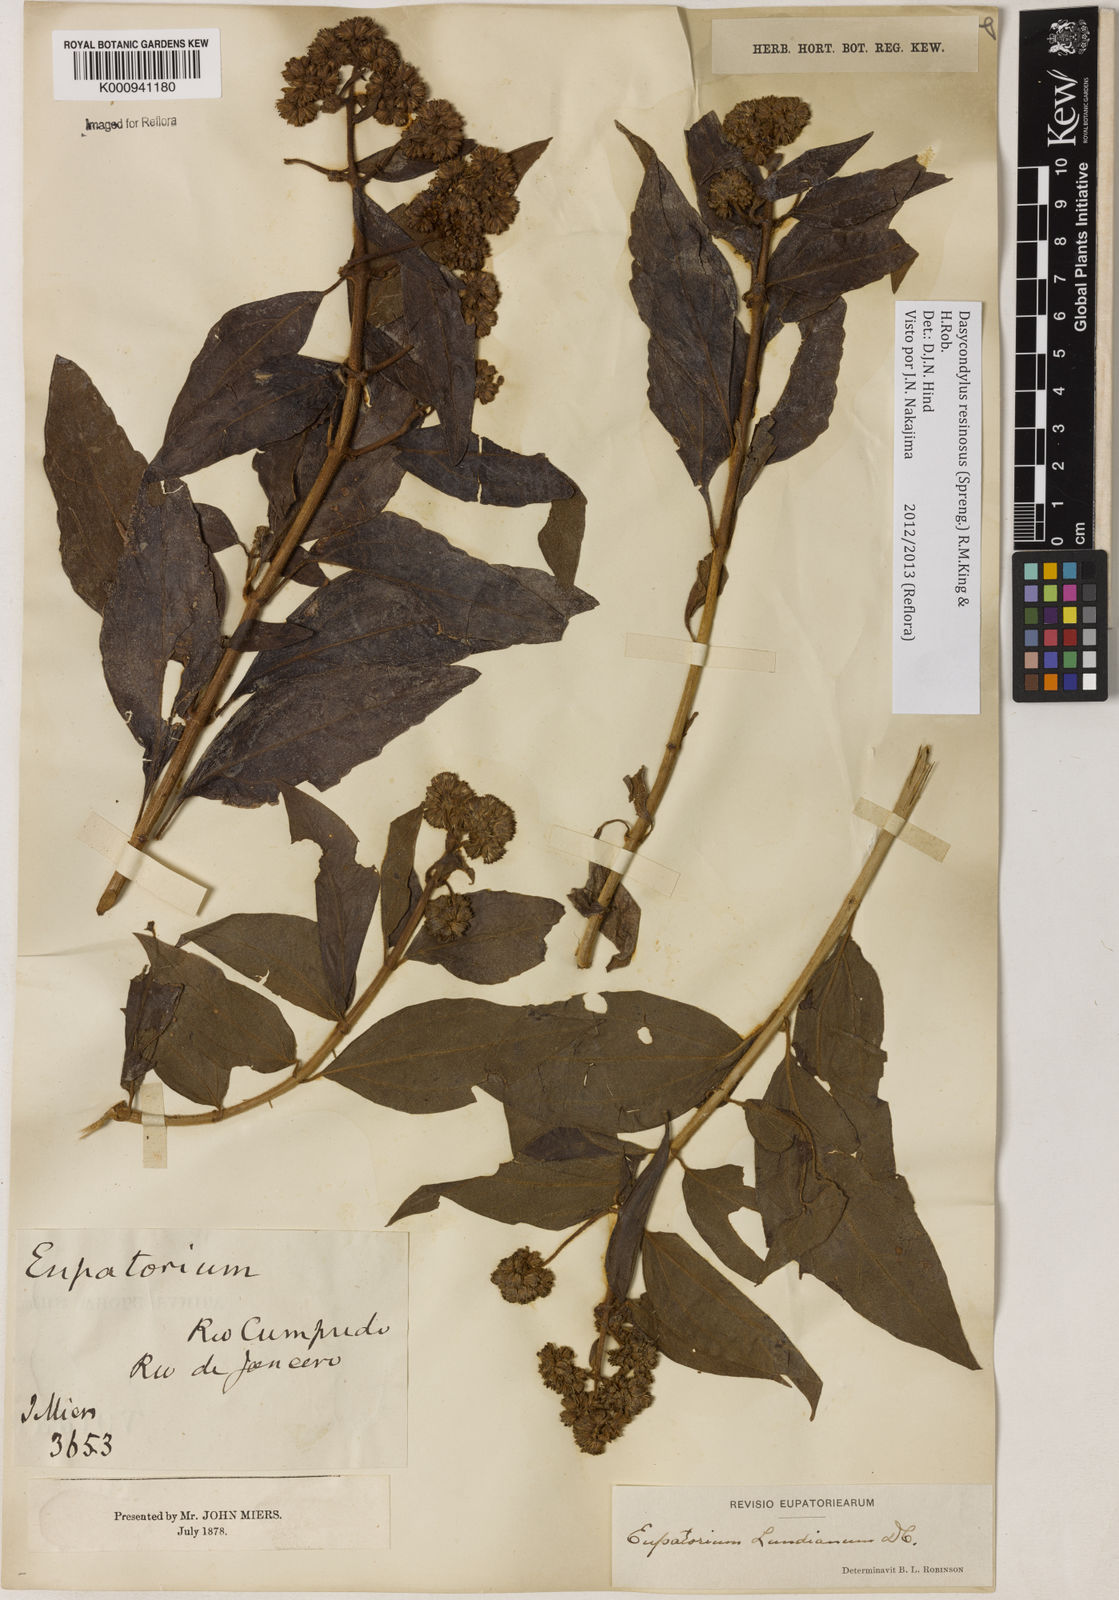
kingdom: Plantae
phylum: Tracheophyta
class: Magnoliopsida
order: Asterales
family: Asteraceae
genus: Dasycondylus
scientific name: Dasycondylus resinosus
